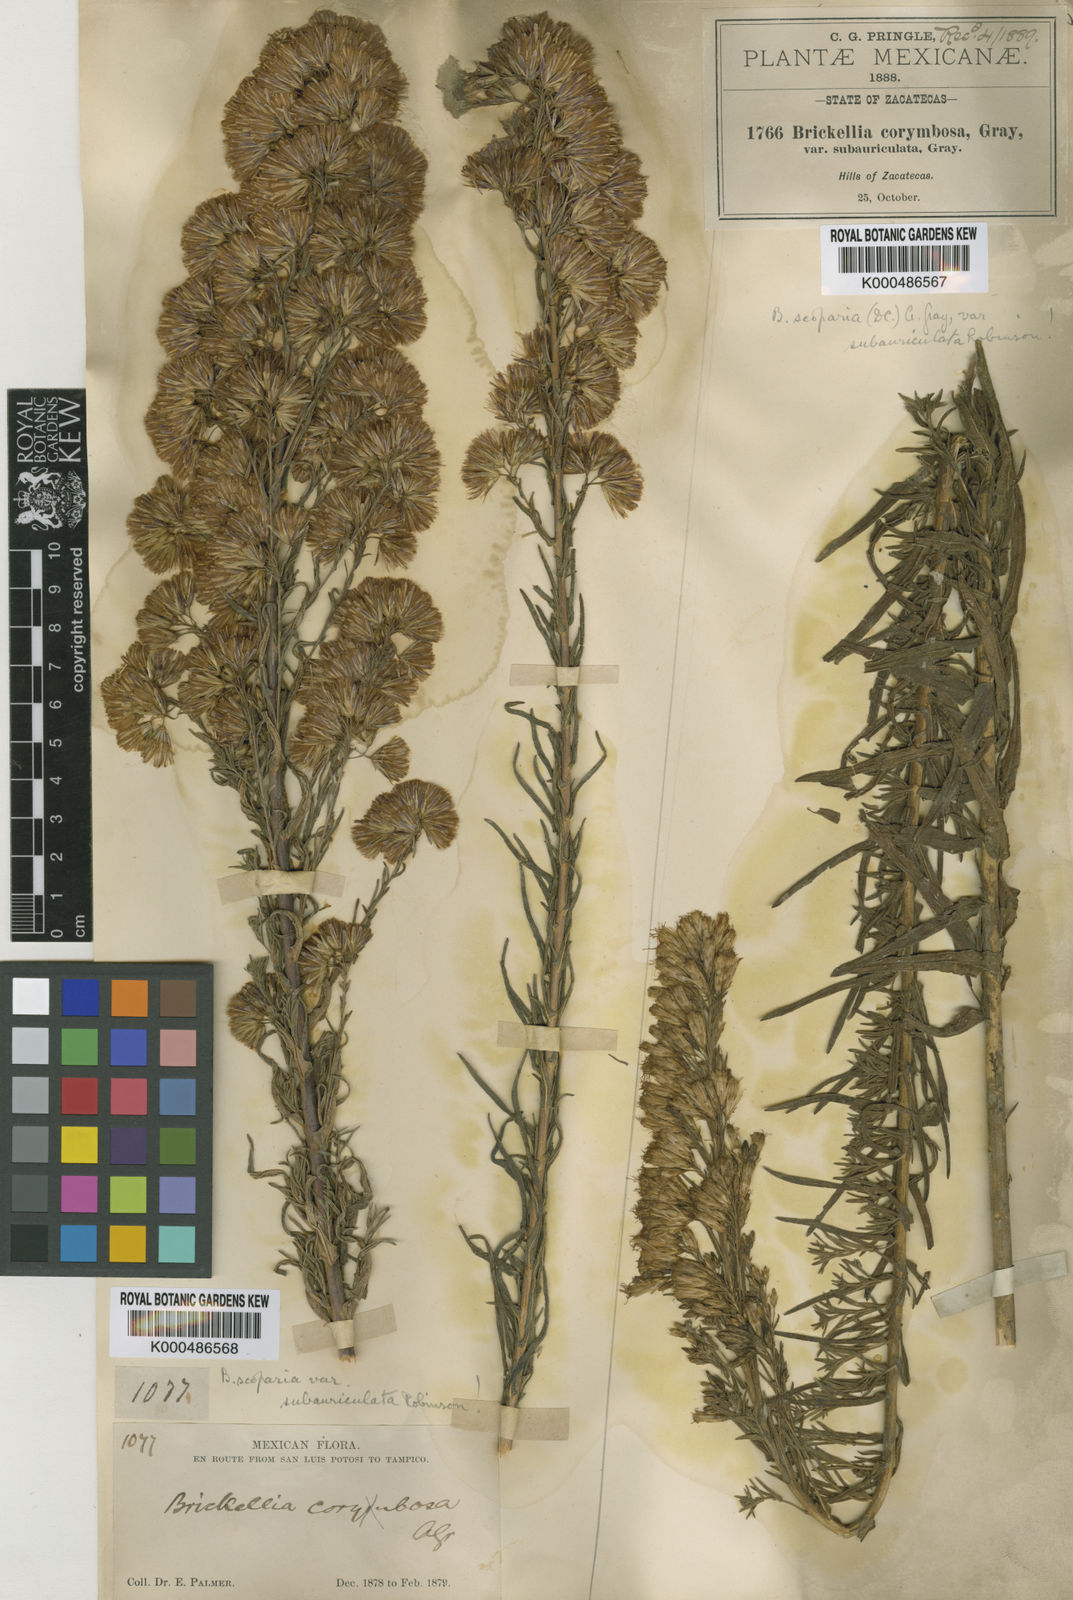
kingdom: Plantae
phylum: Tracheophyta
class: Magnoliopsida
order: Asterales
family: Asteraceae
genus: Brickellia
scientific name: Brickellia scoparia
